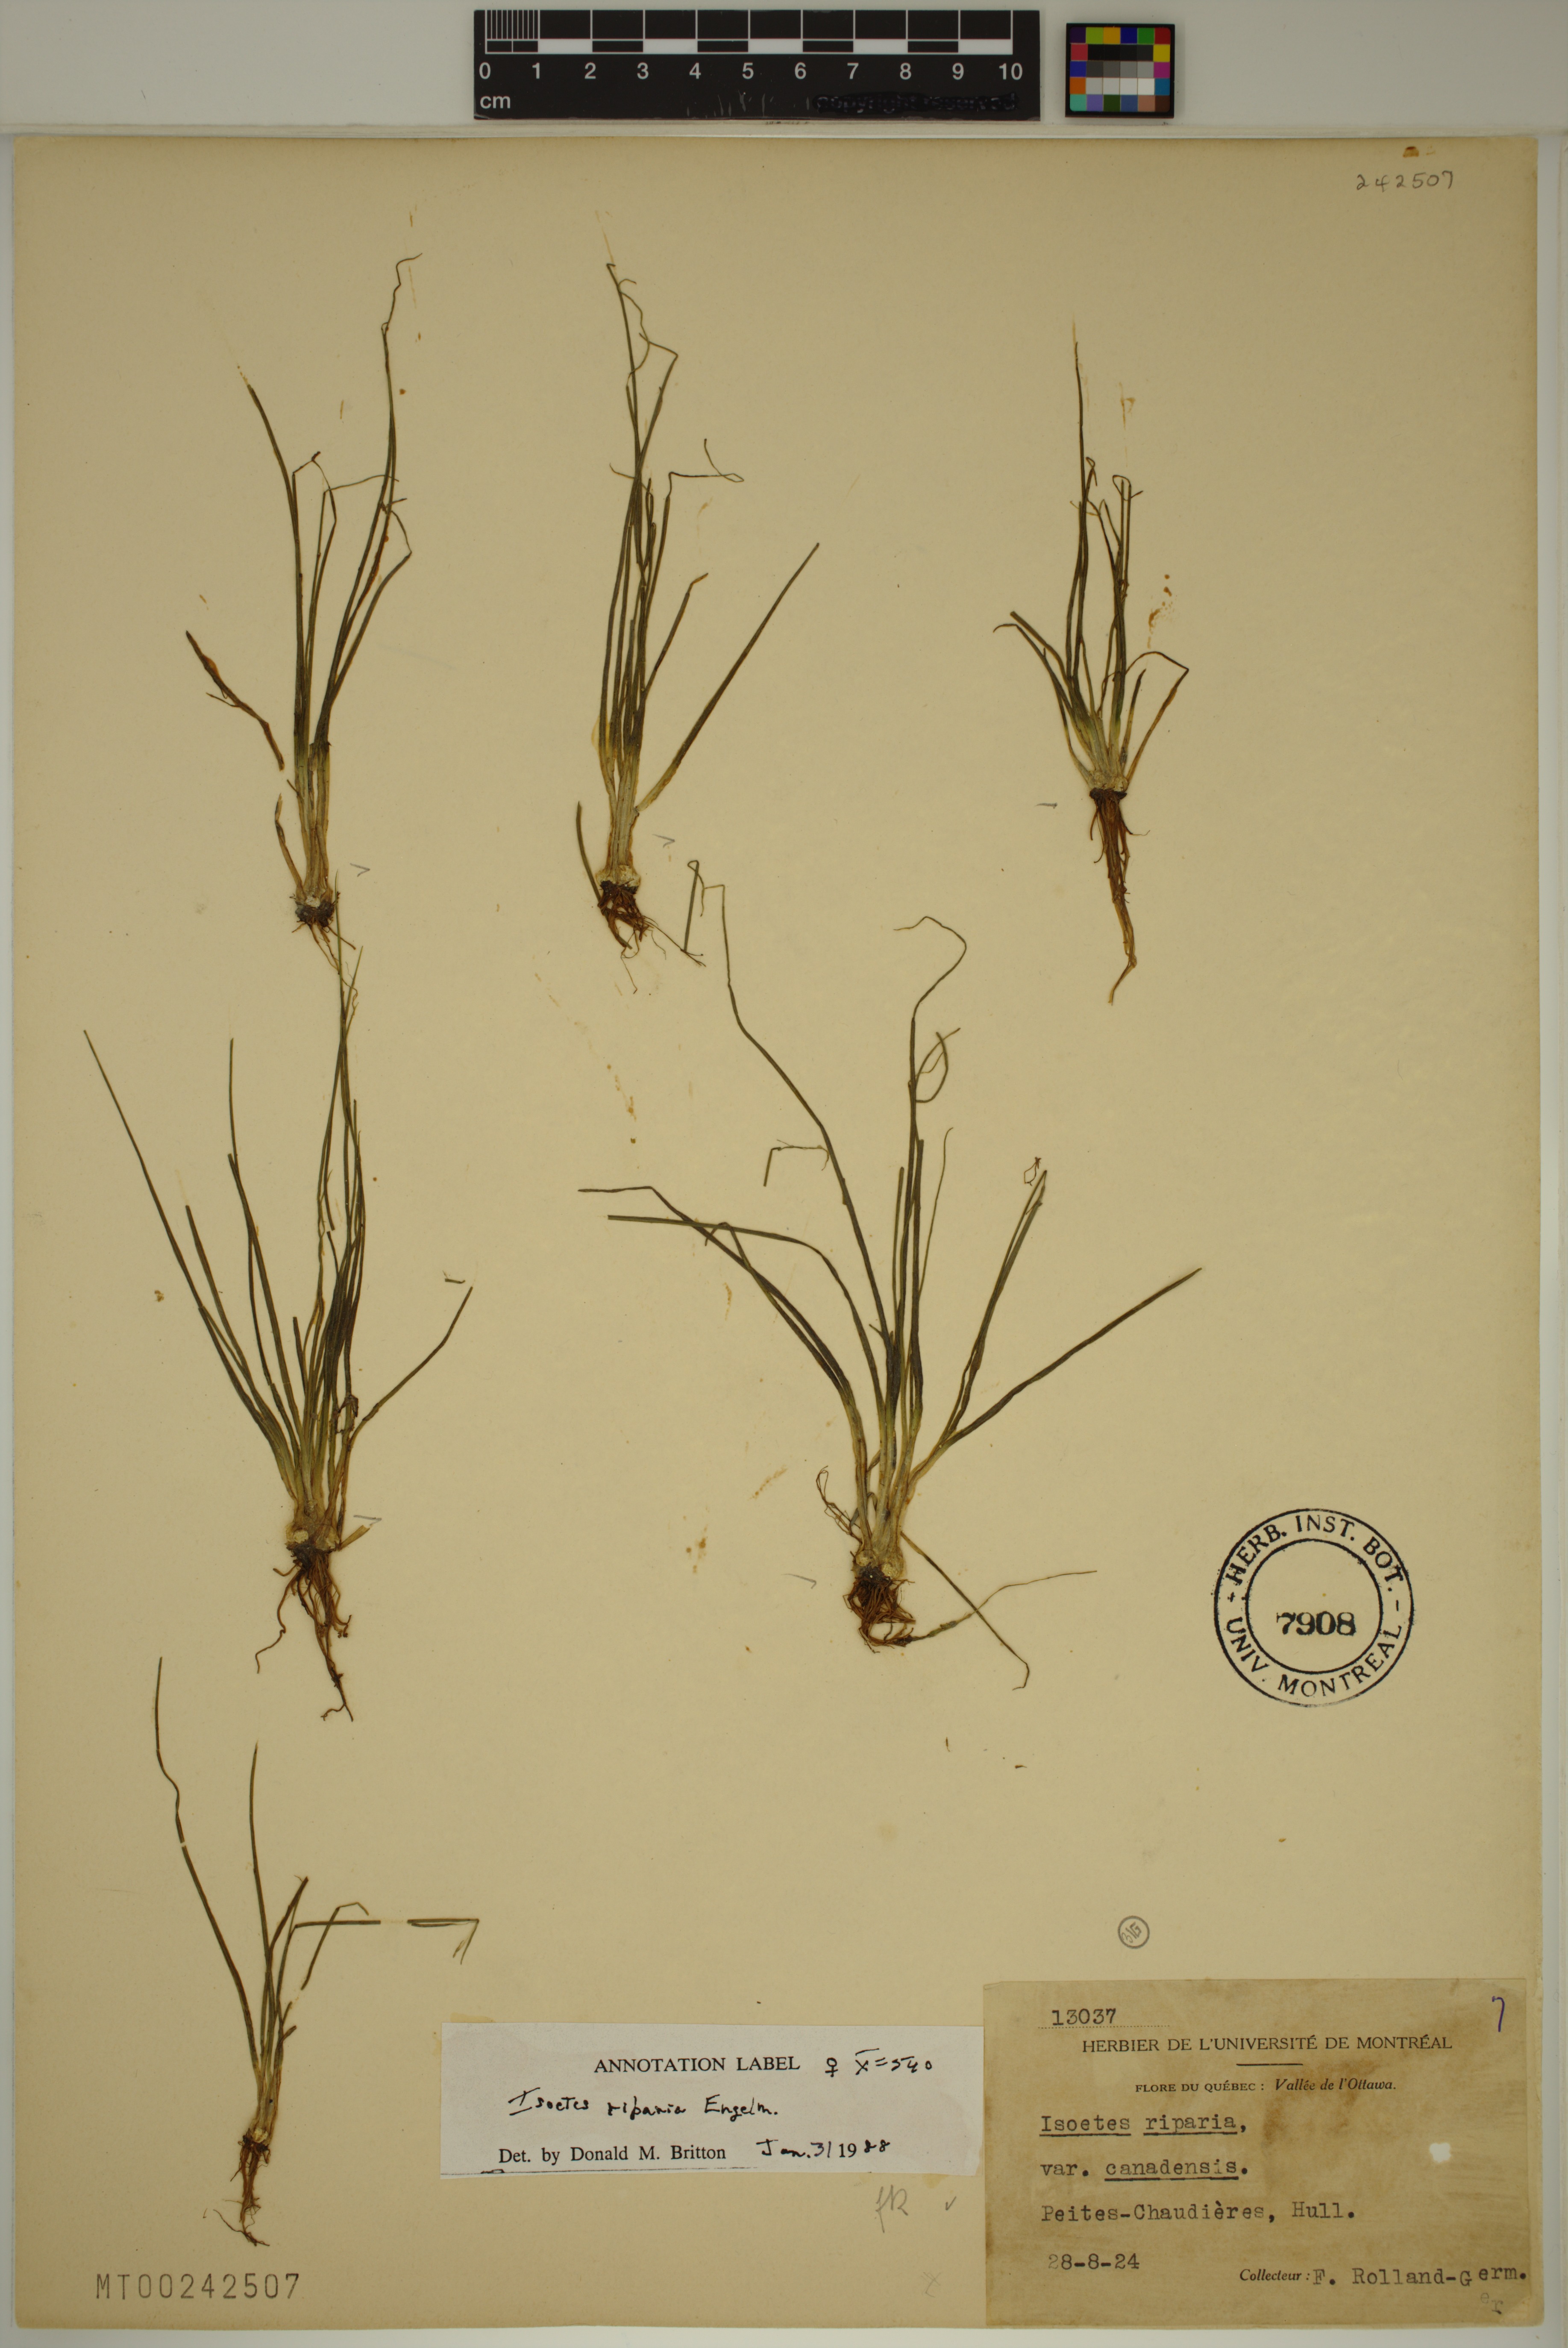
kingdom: Plantae
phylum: Tracheophyta
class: Lycopodiopsida
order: Isoetales
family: Isoetaceae
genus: Isoetes
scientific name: Isoetes septentrionalis
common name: Northern quillwort
